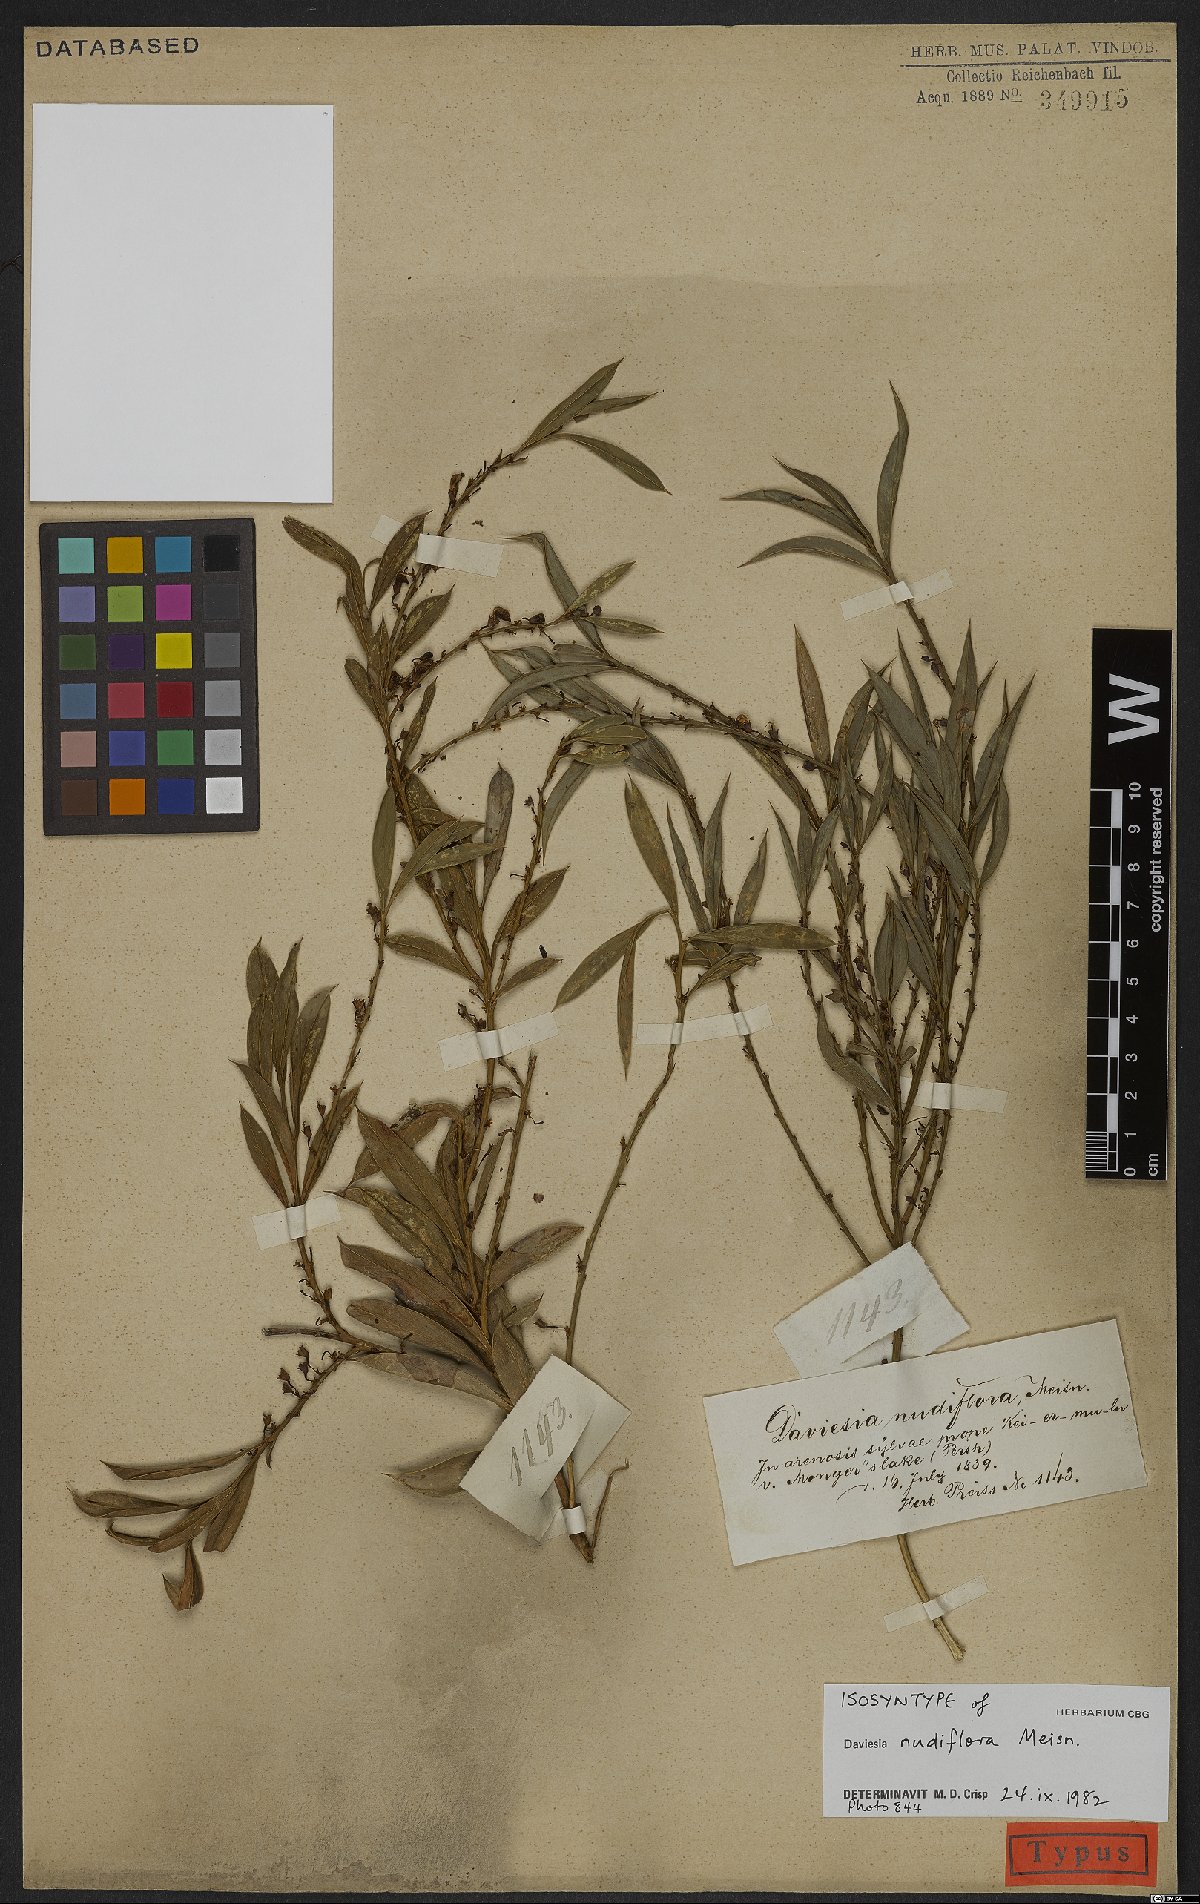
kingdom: Plantae
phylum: Tracheophyta
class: Magnoliopsida
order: Fabales
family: Fabaceae
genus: Daviesia
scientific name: Daviesia nudiflora
